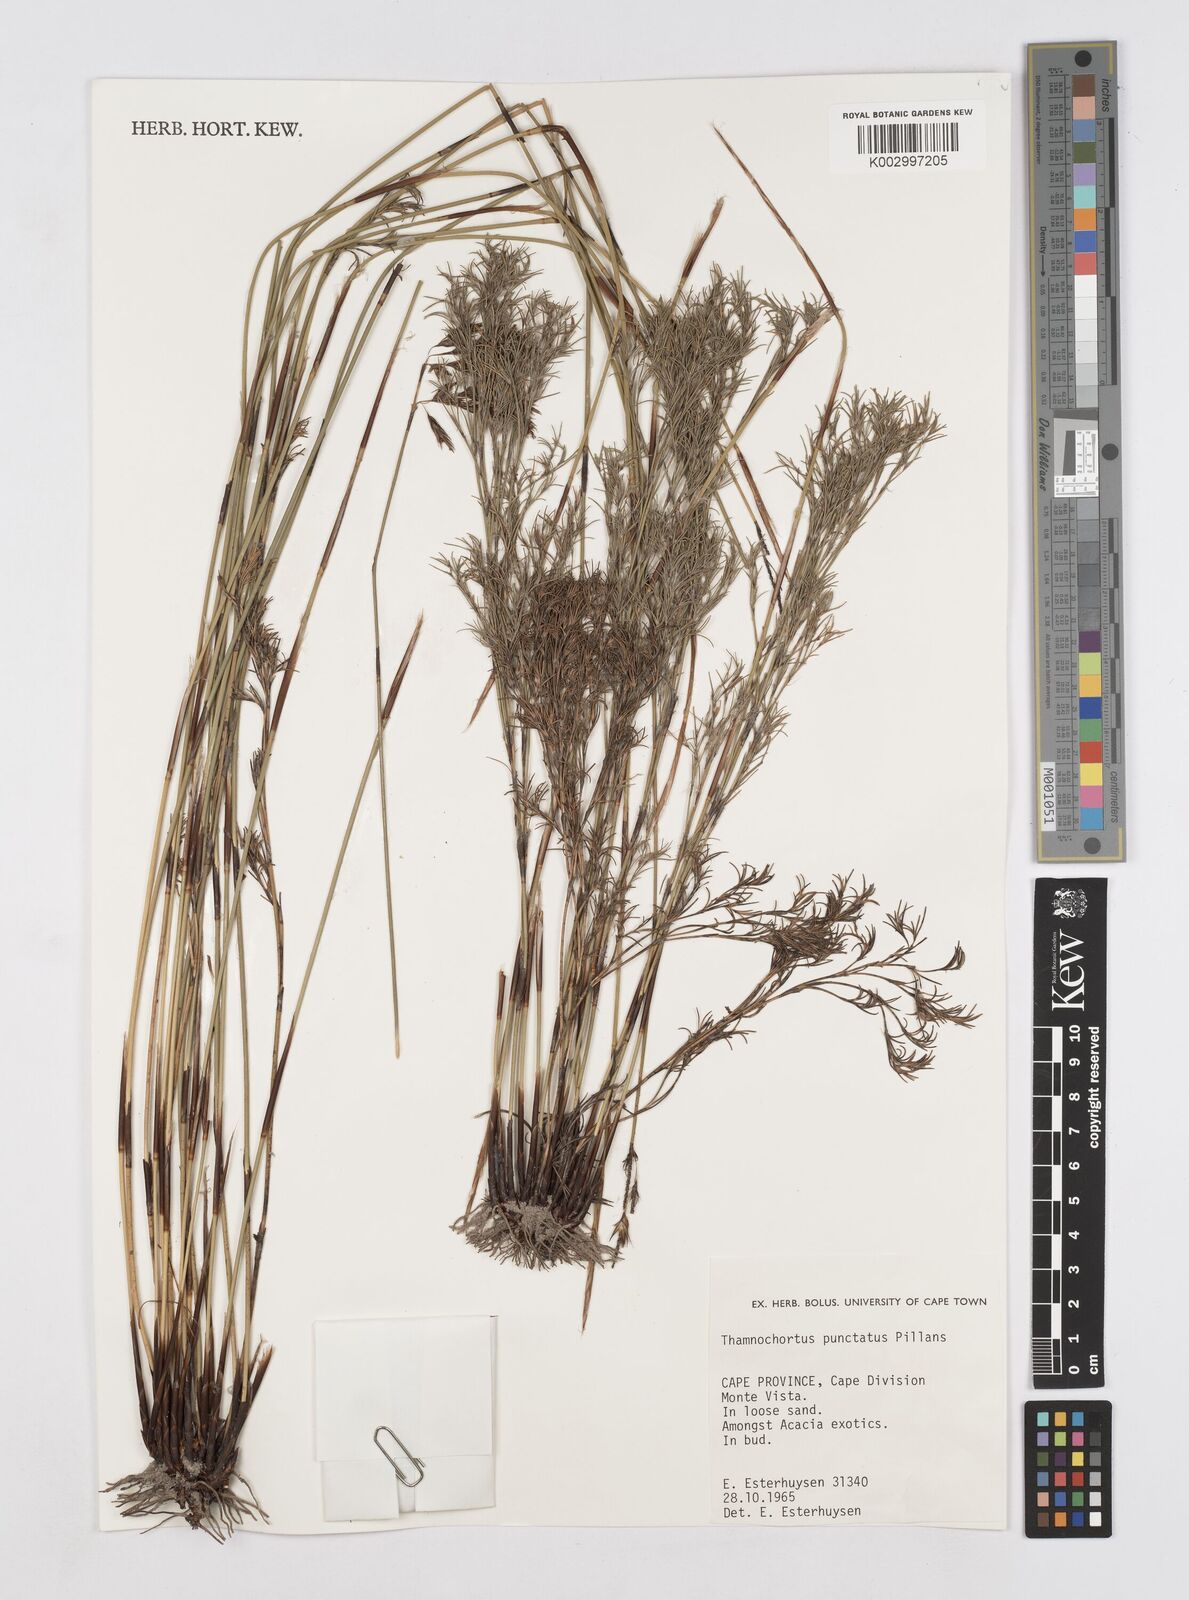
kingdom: Plantae
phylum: Tracheophyta
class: Liliopsida
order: Poales
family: Restionaceae
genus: Thamnochortus
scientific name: Thamnochortus punctatus
